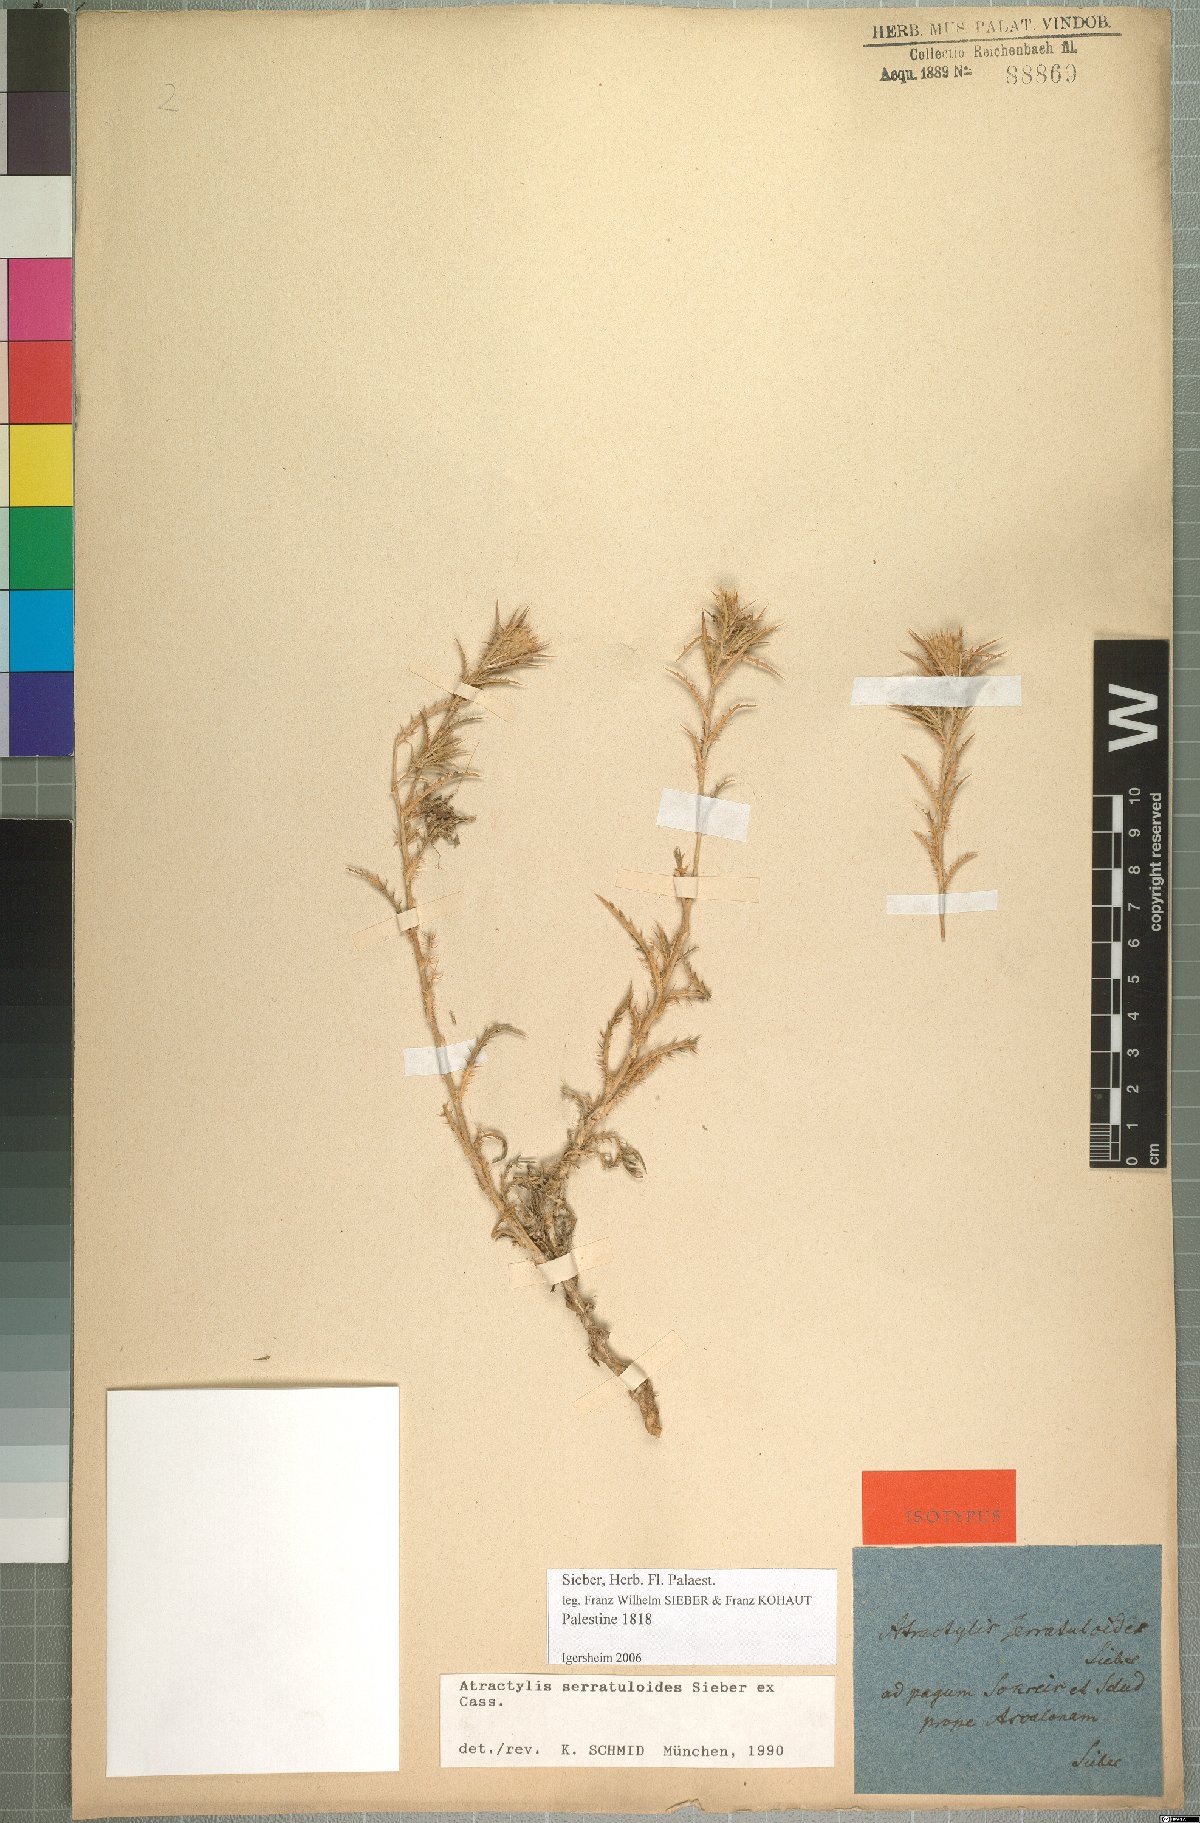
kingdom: Plantae
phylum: Tracheophyta
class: Magnoliopsida
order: Asterales
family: Asteraceae
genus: Atractylis
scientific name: Atractylis serratuloides
